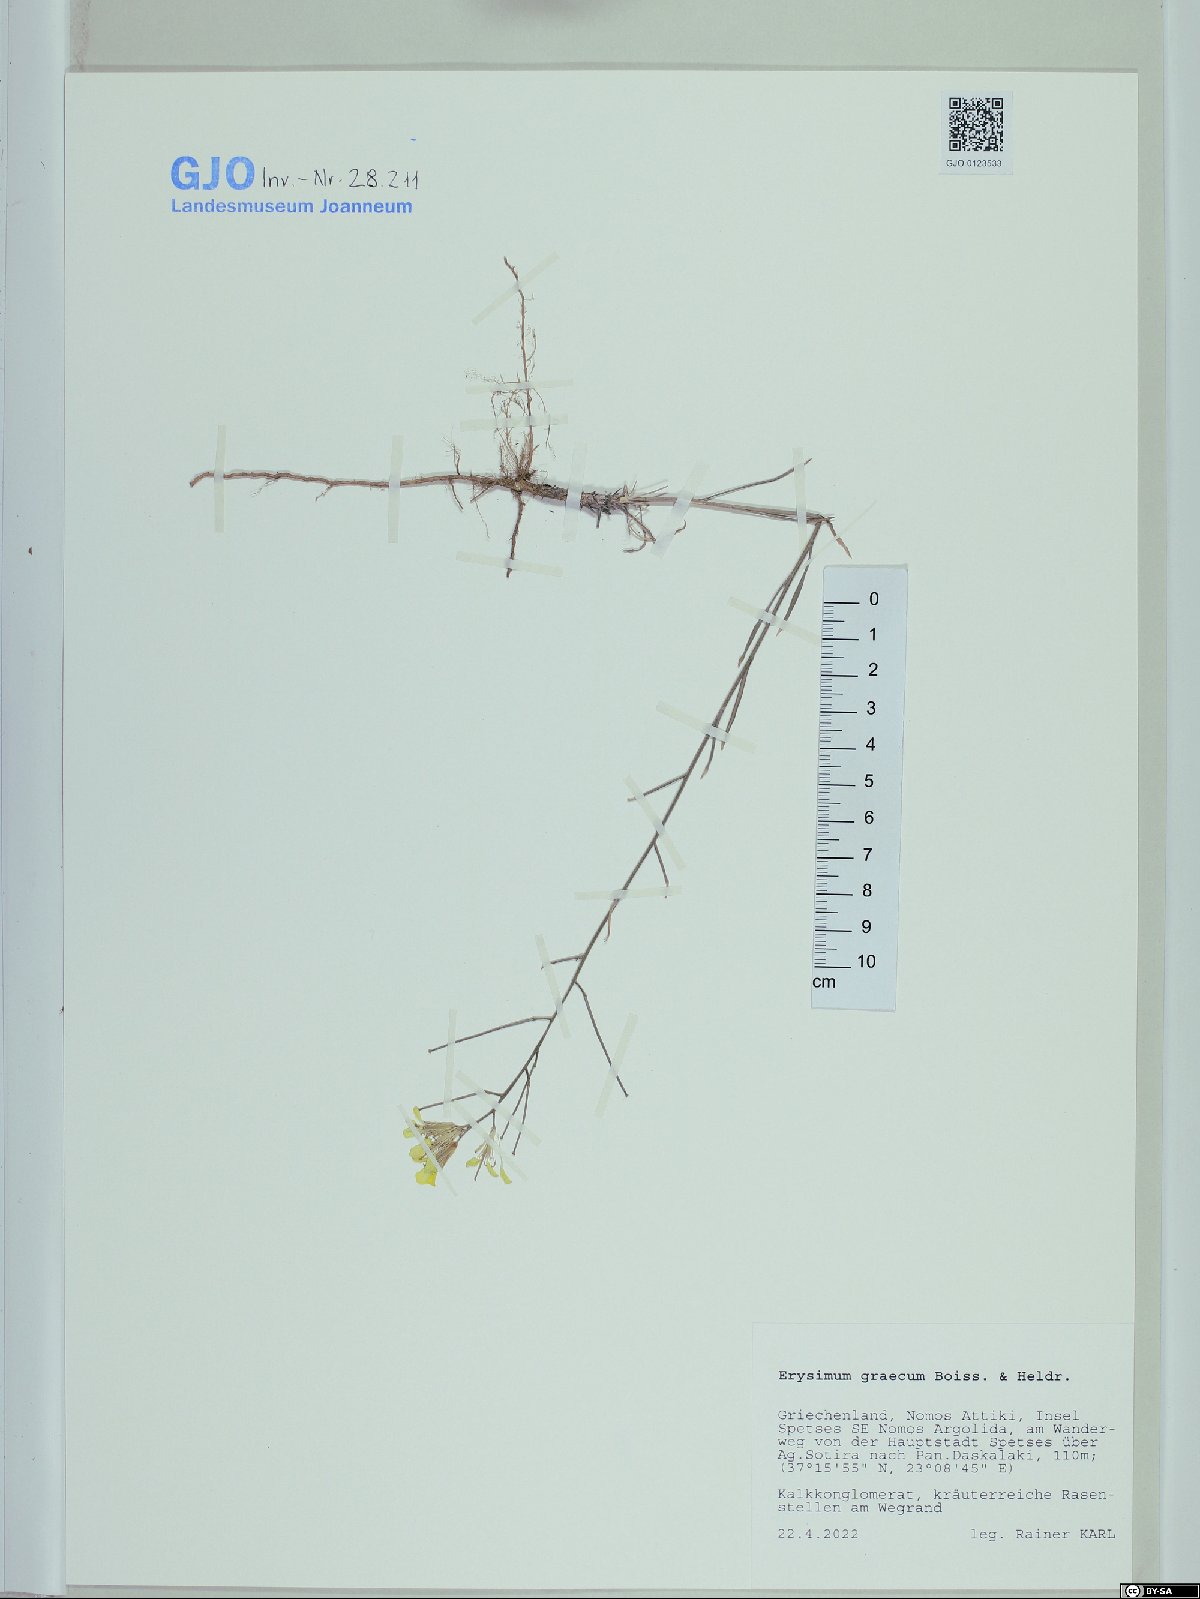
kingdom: Plantae
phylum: Tracheophyta
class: Magnoliopsida
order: Brassicales
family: Brassicaceae
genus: Erysimum
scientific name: Erysimum graecum
